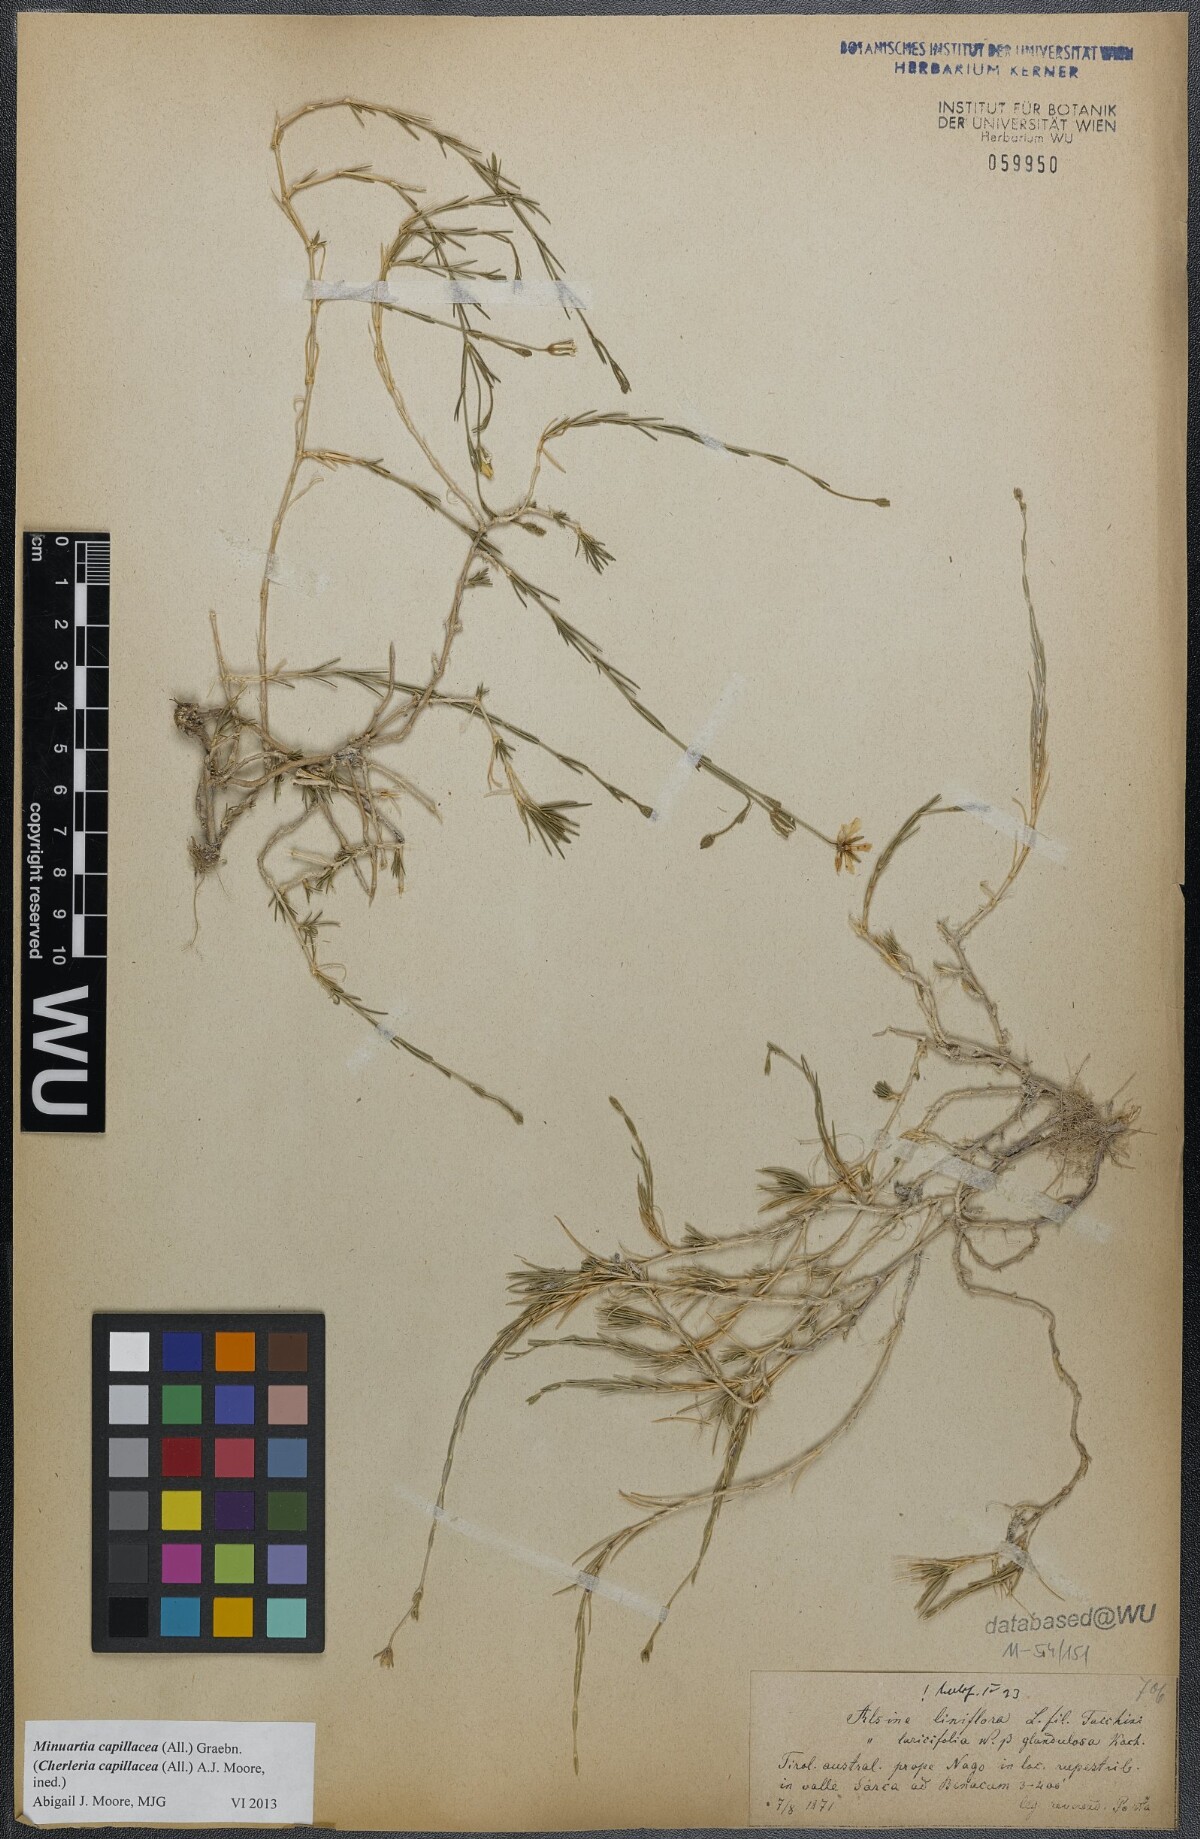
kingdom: Plantae
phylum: Tracheophyta
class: Magnoliopsida
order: Caryophyllales
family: Caryophyllaceae
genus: Cherleria
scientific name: Cherleria capillacea
